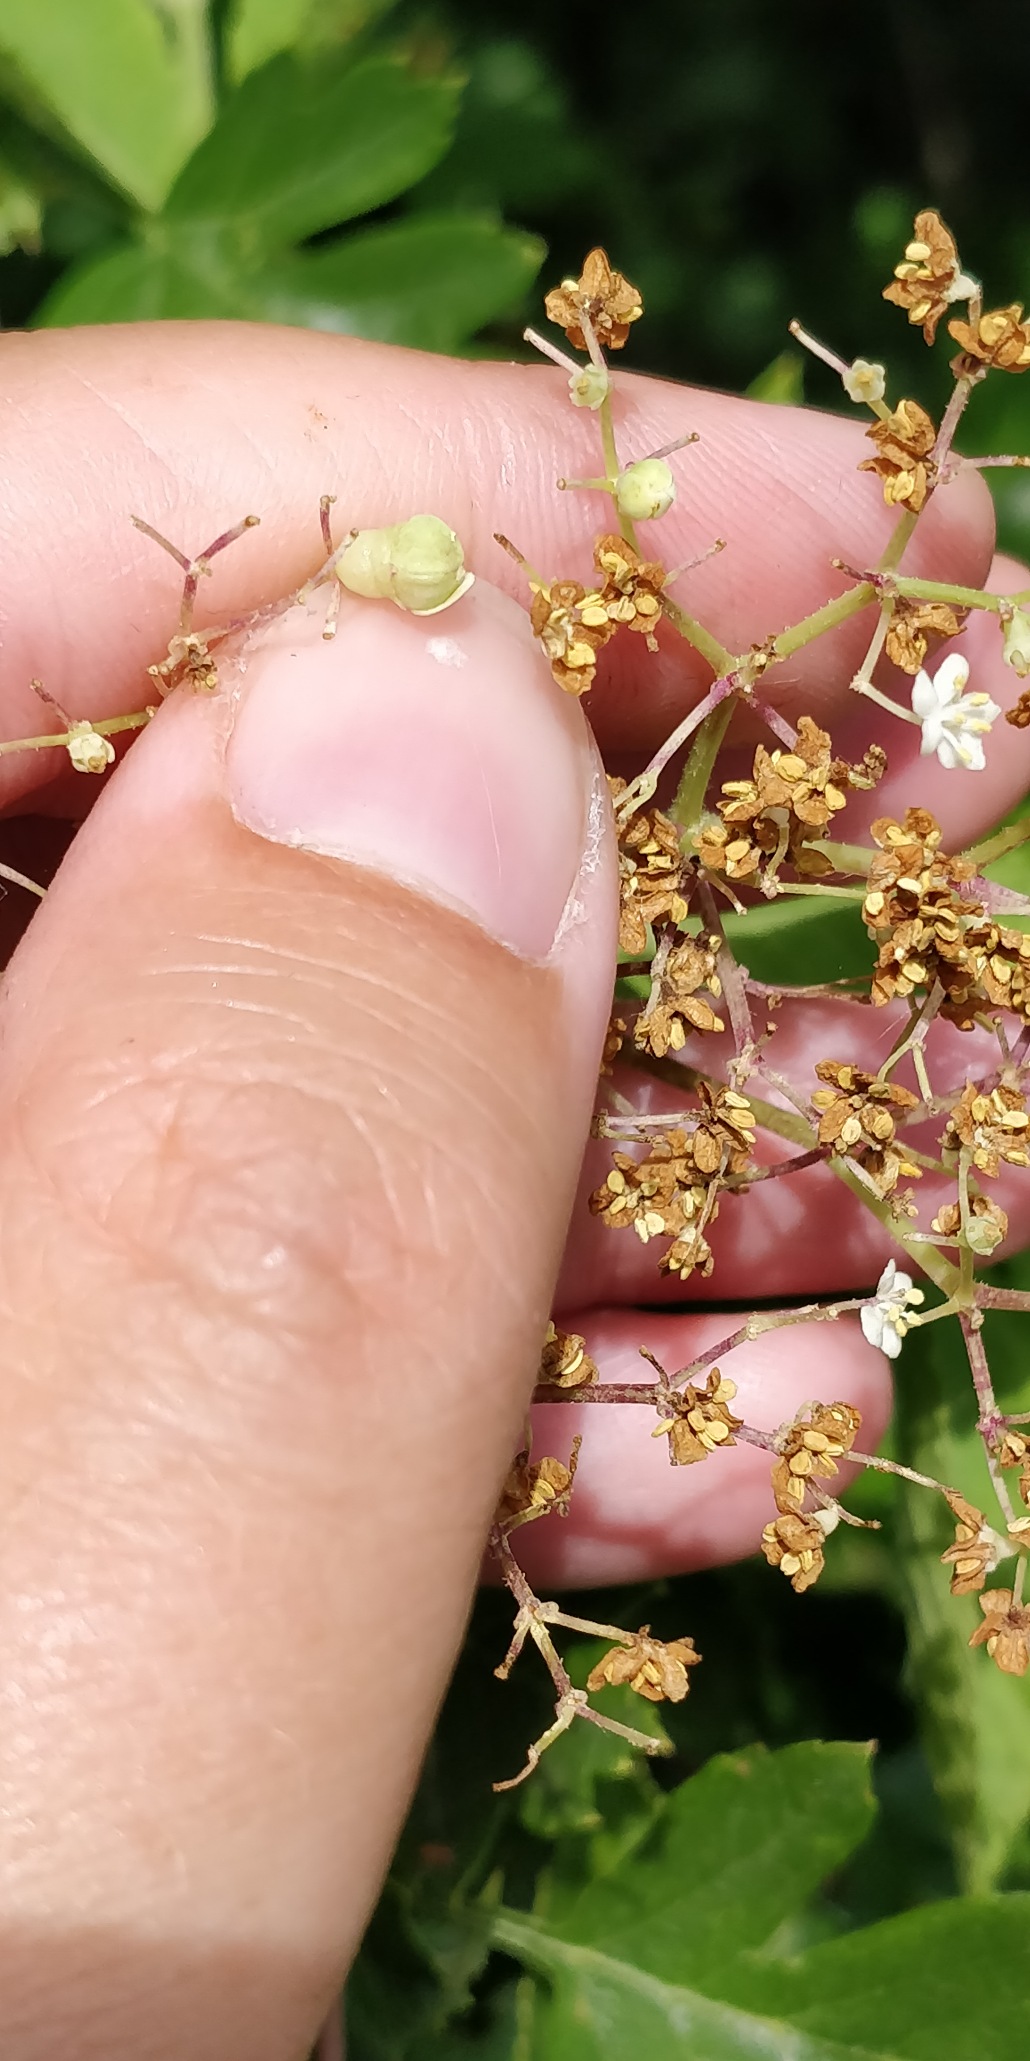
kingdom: Animalia
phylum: Arthropoda
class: Insecta
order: Diptera
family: Cecidomyiidae
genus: Placochela
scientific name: Placochela nigripes
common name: Hyldeblomstgalmyg
